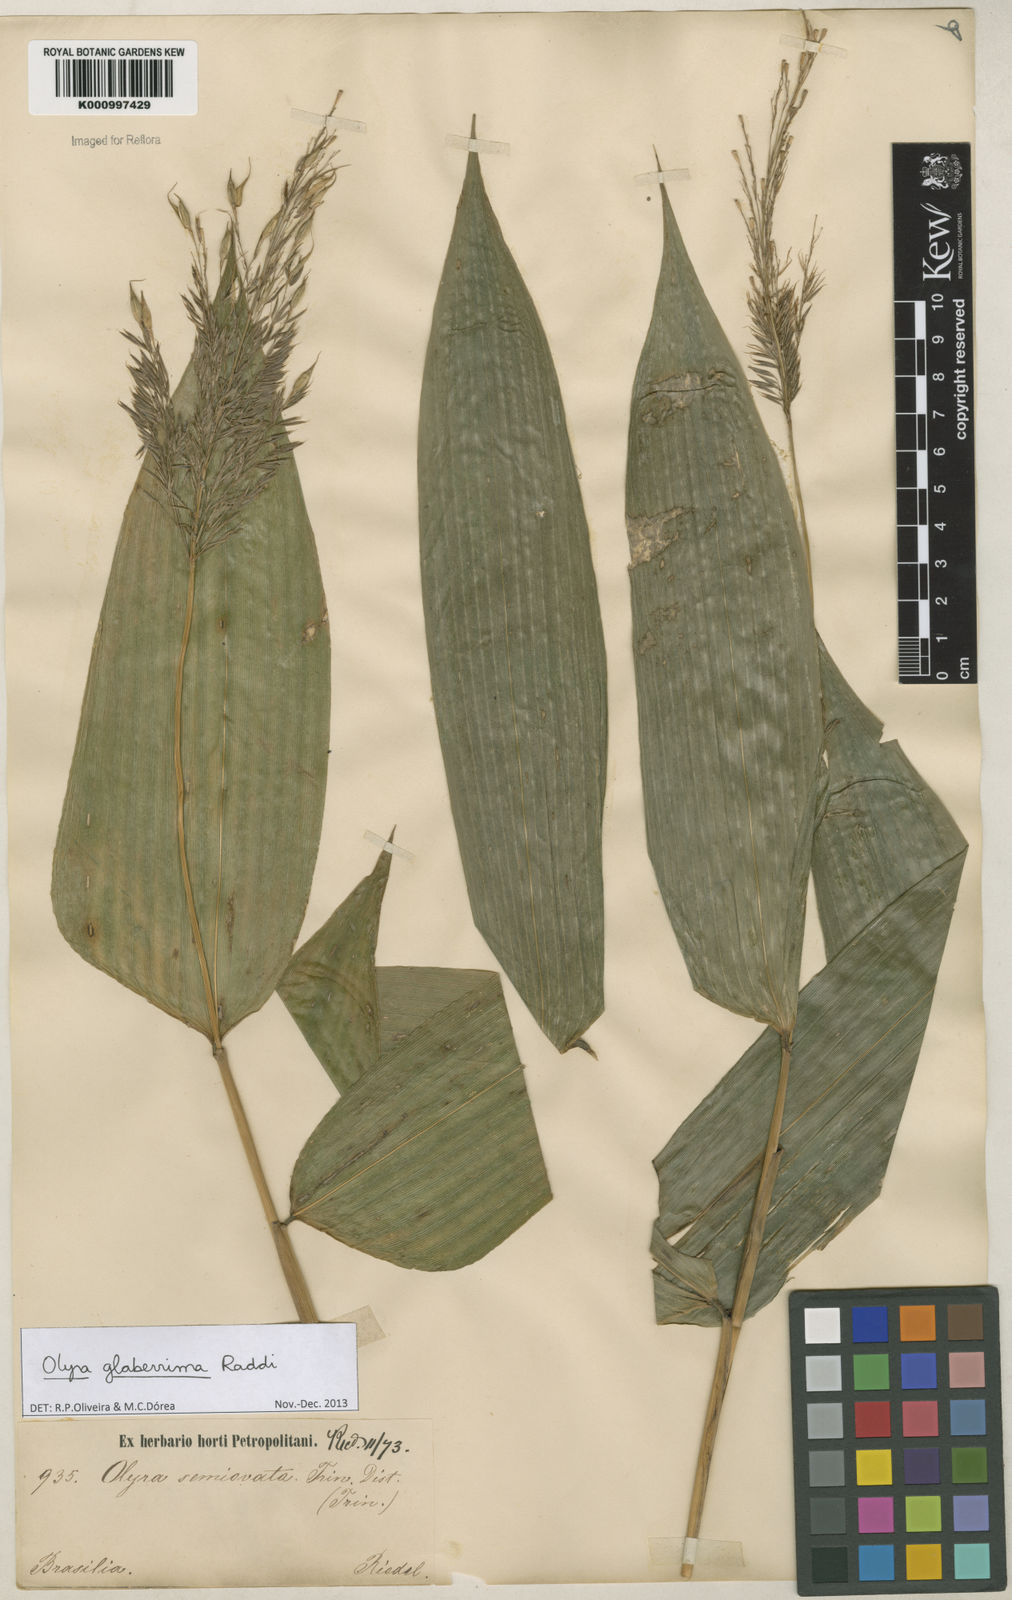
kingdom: Plantae
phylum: Tracheophyta
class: Liliopsida
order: Poales
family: Poaceae
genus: Olyra
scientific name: Olyra glaberrima
